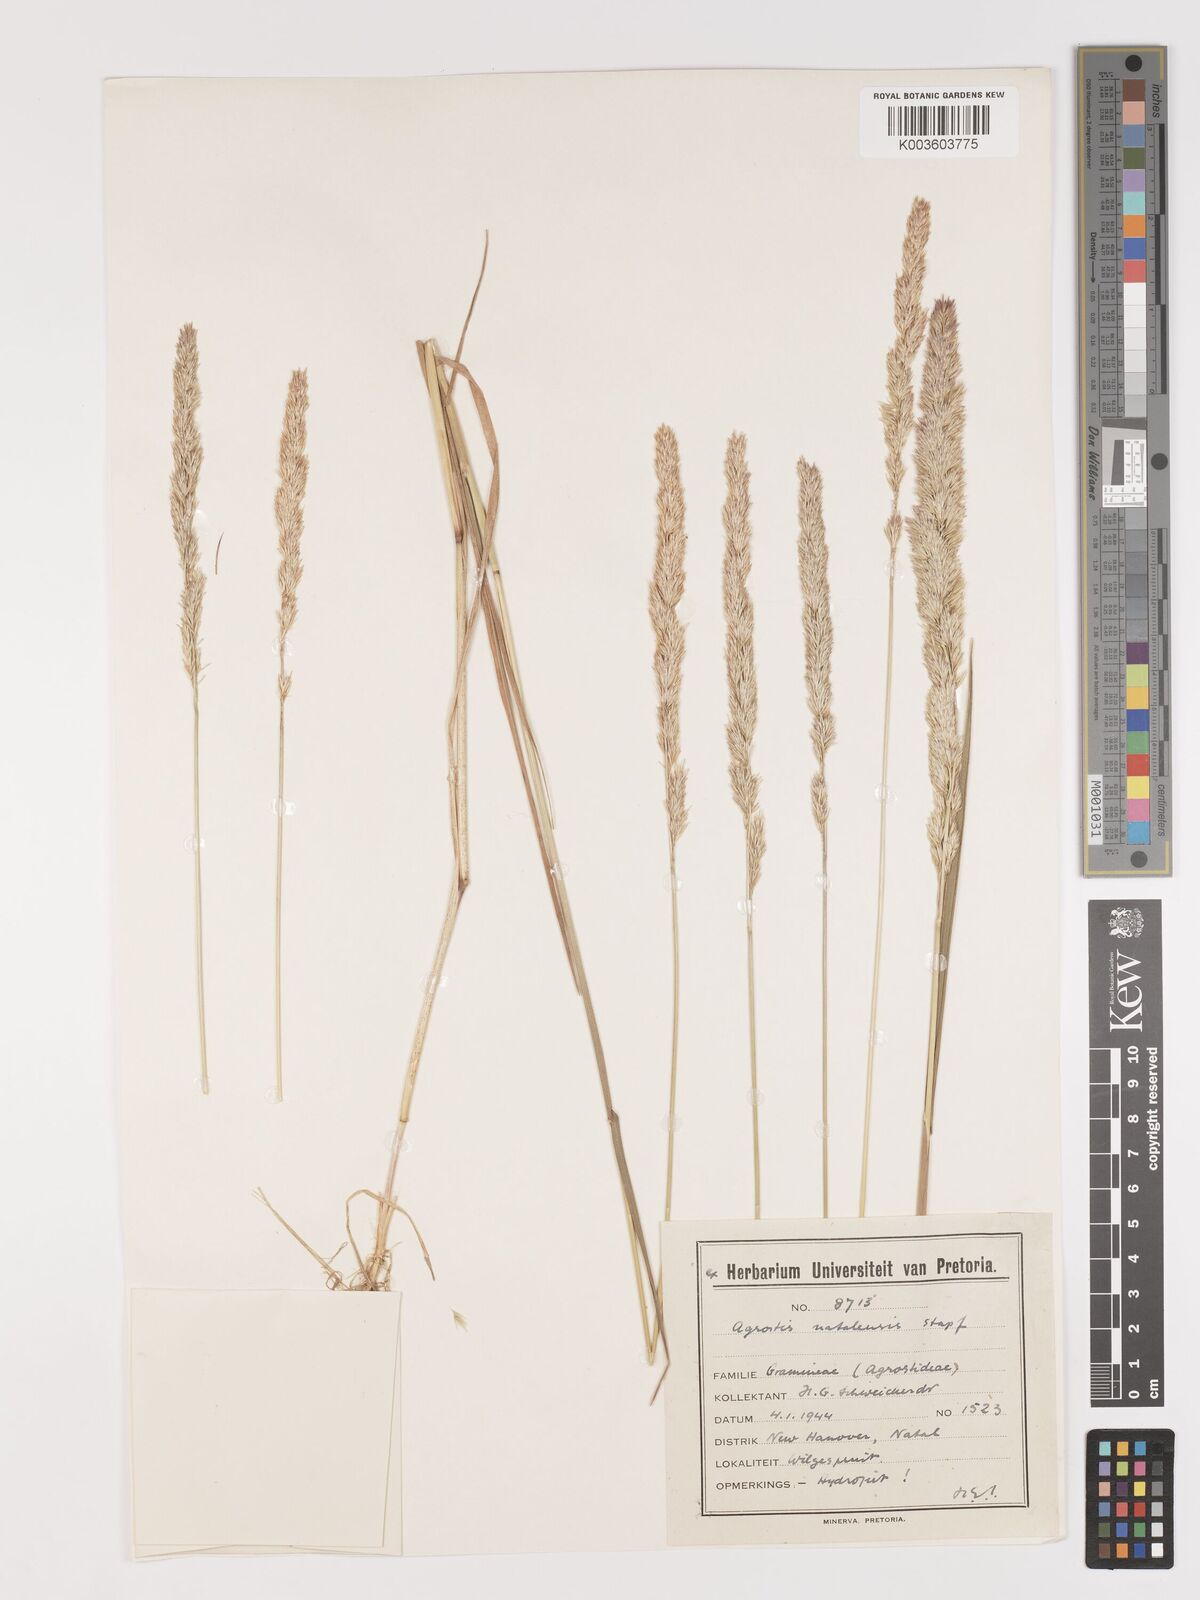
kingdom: Plantae
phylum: Tracheophyta
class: Liliopsida
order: Poales
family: Poaceae
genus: Agrostis
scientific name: Agrostis continuata
